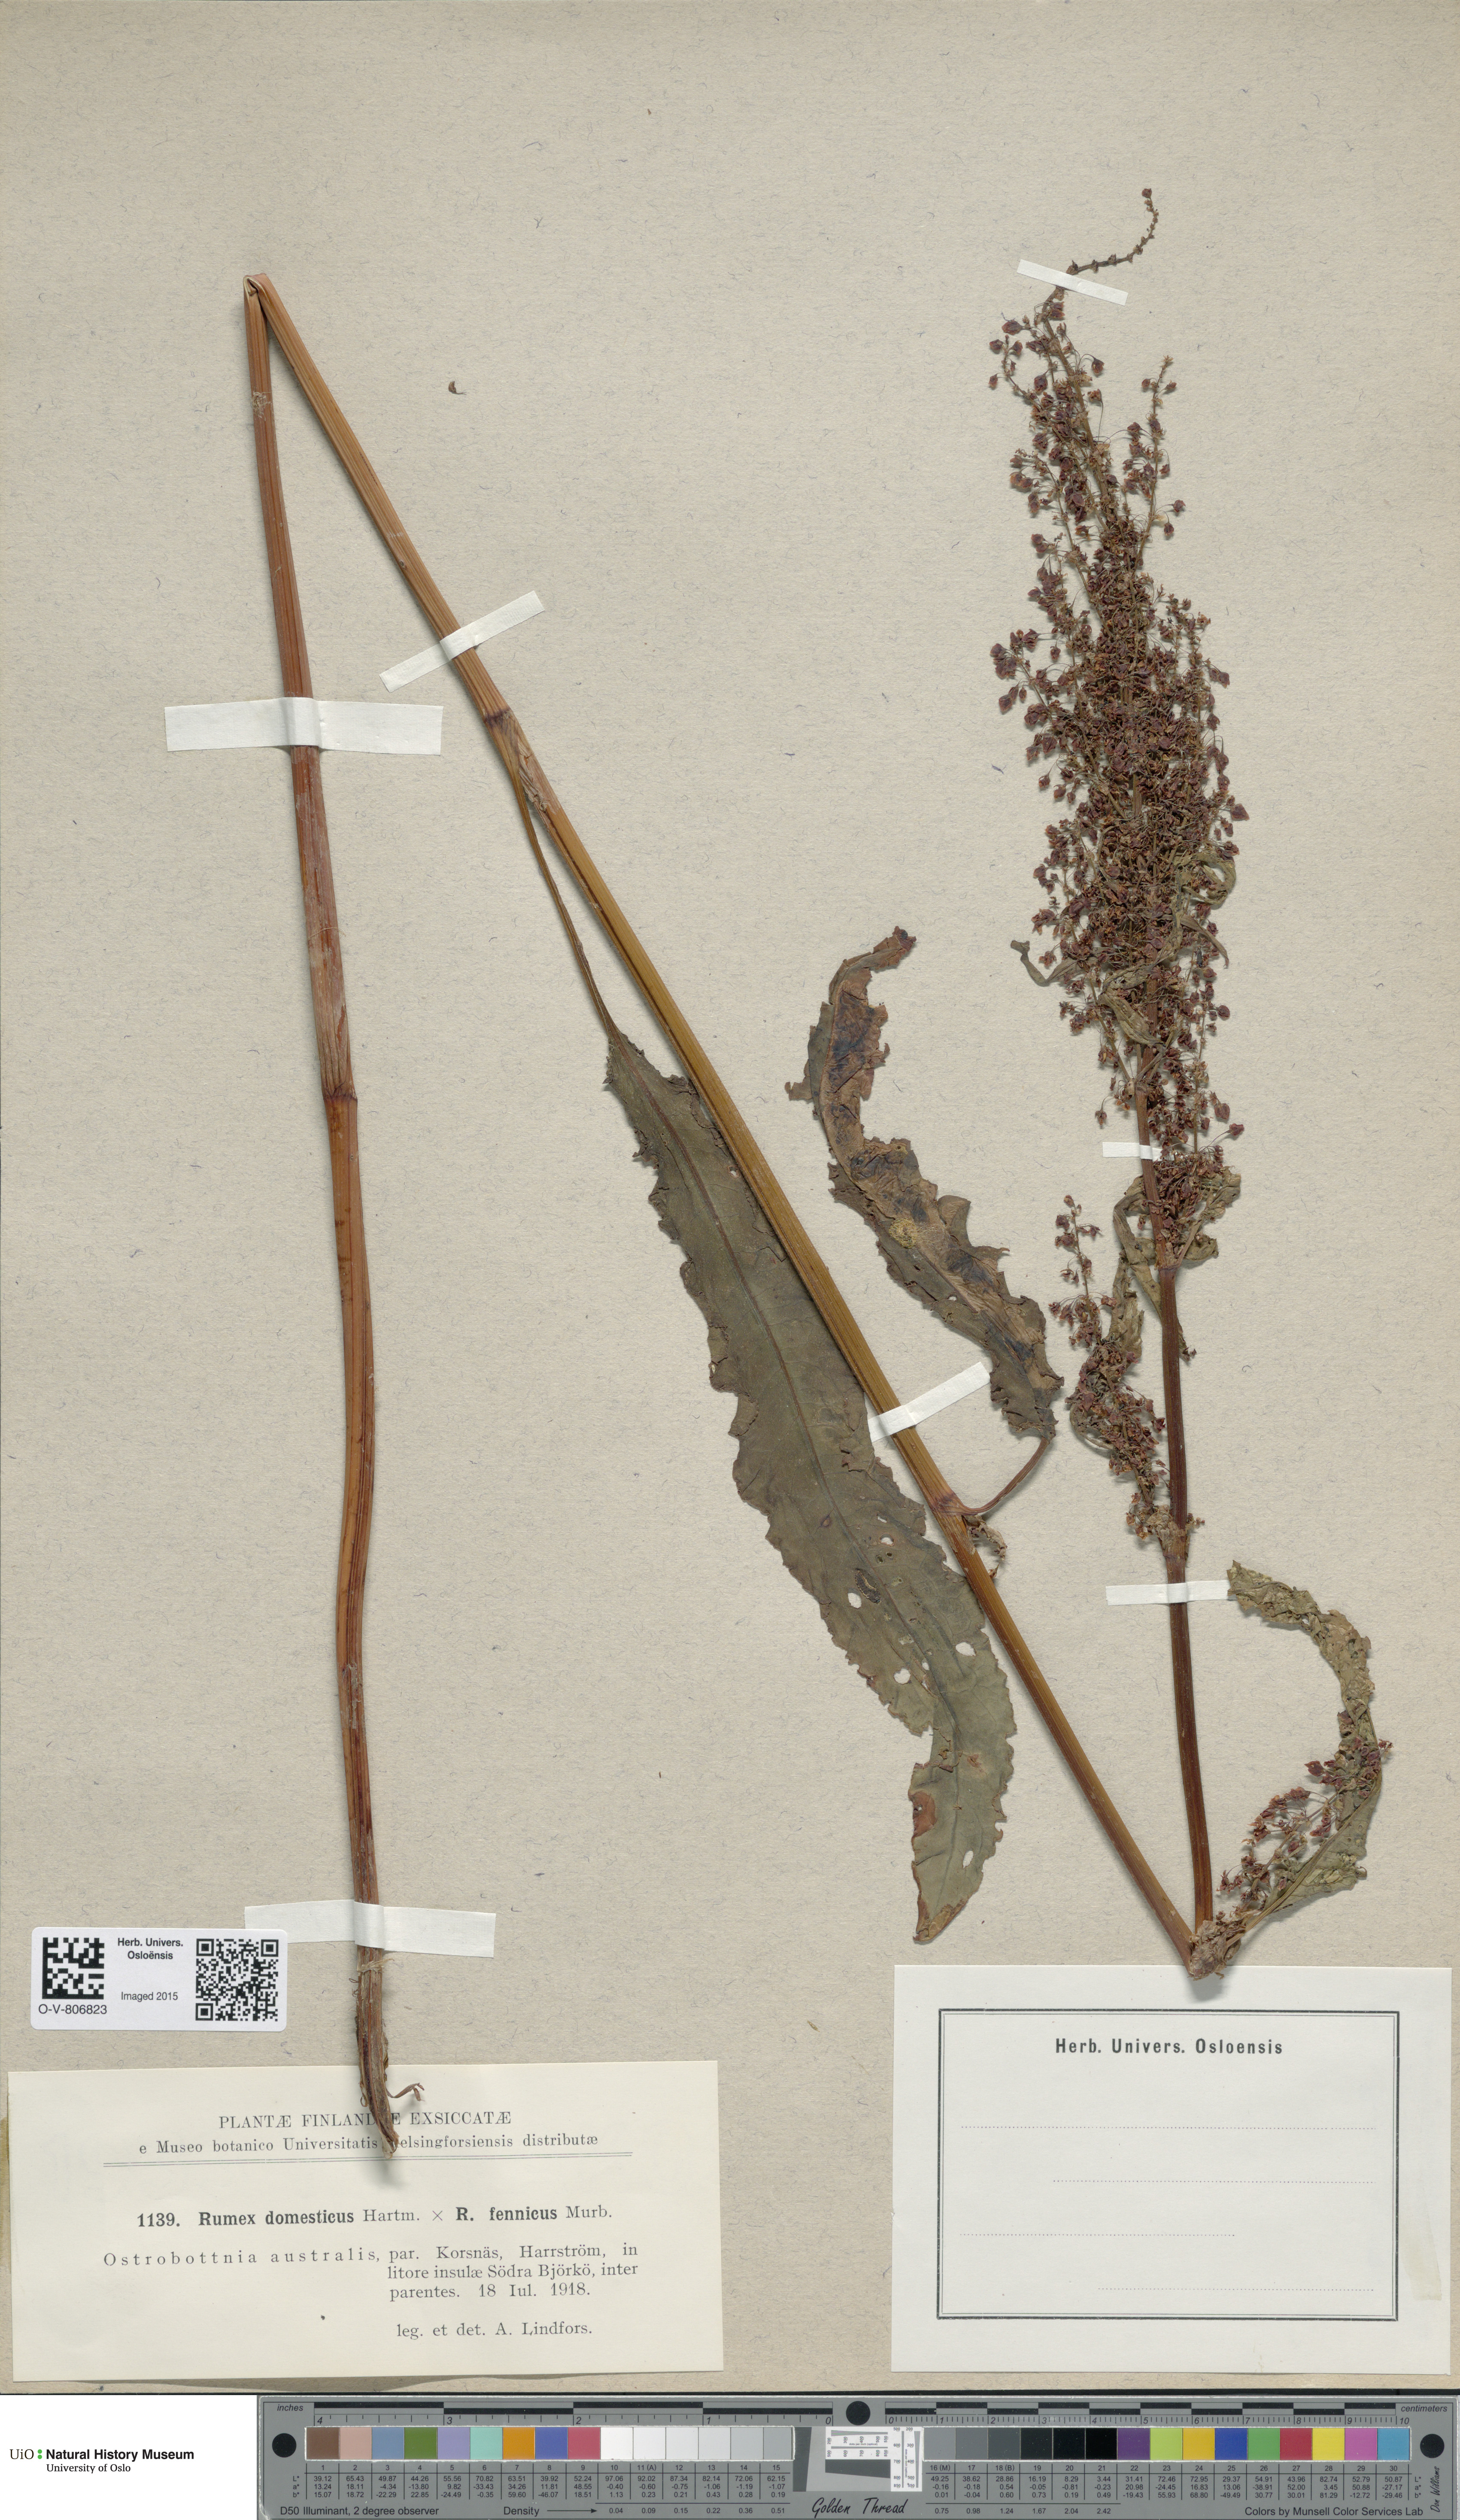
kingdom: Plantae
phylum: Tracheophyta
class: Magnoliopsida
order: Caryophyllales
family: Polygonaceae
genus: Rumex
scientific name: Rumex
